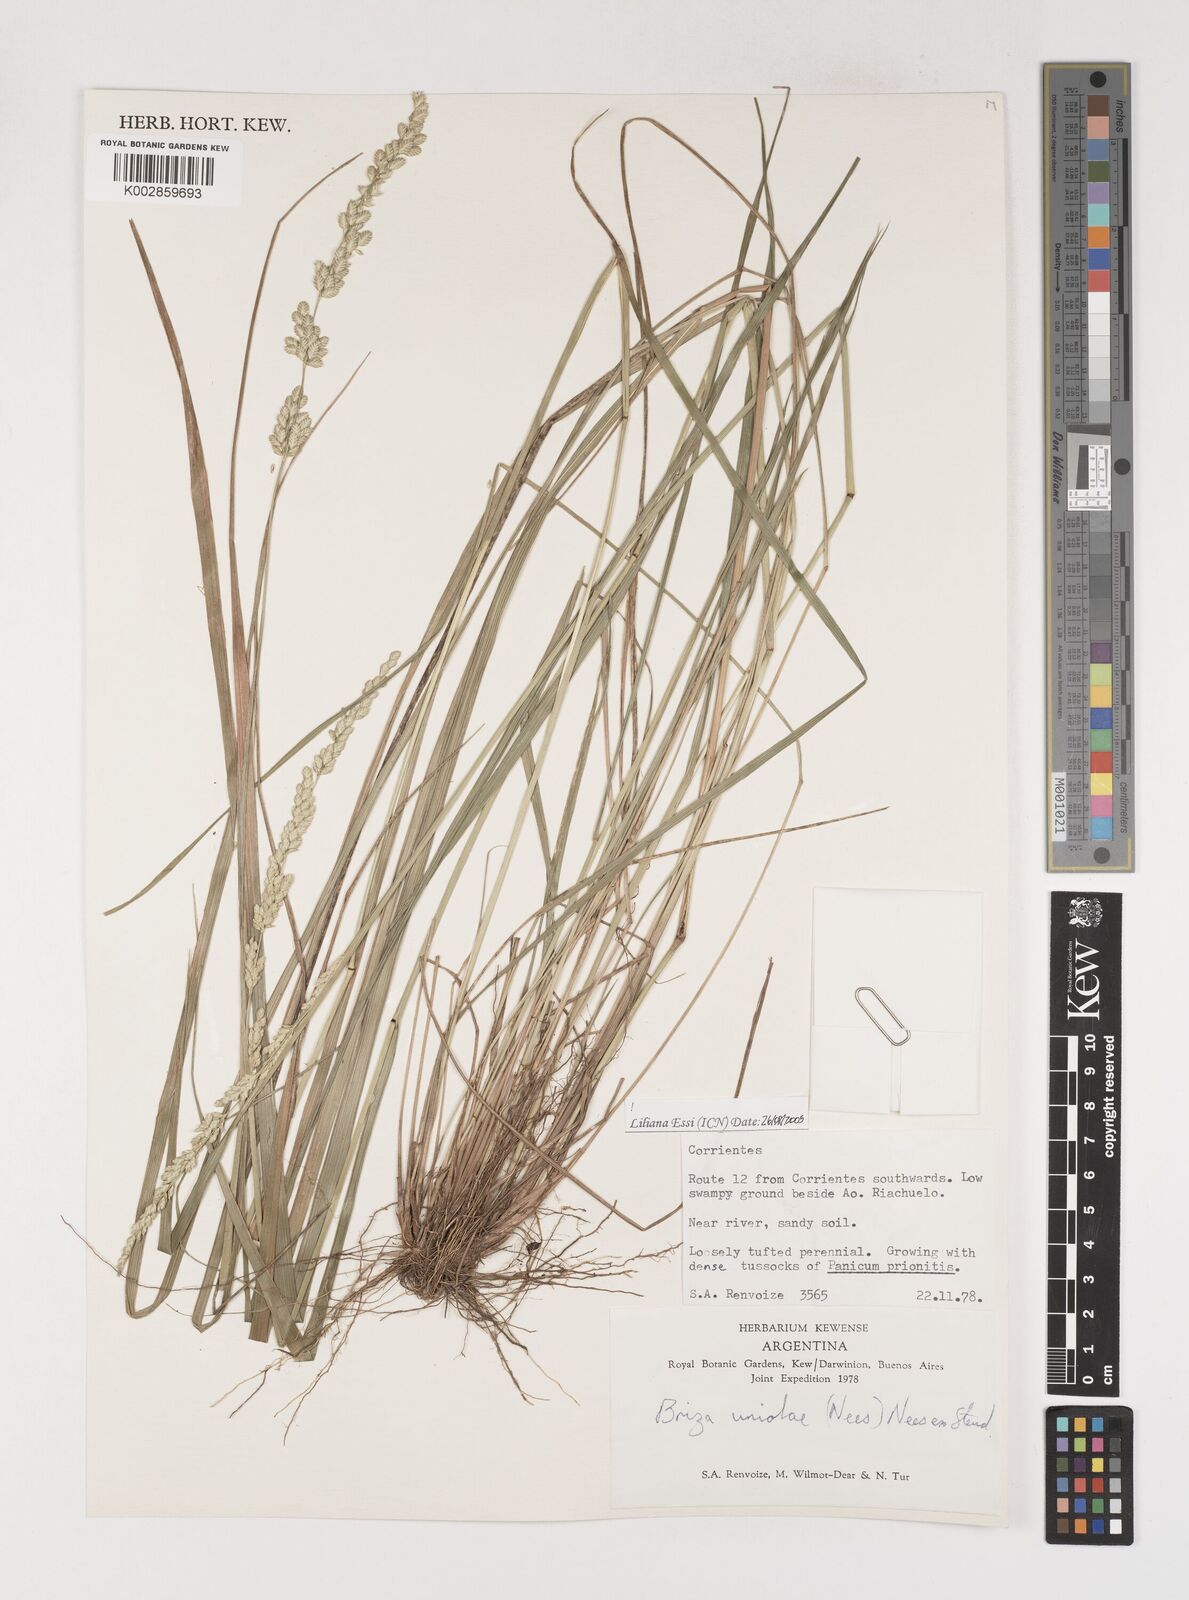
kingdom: Plantae
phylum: Tracheophyta
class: Liliopsida
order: Poales
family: Poaceae
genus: Poidium
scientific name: Poidium uniolae
